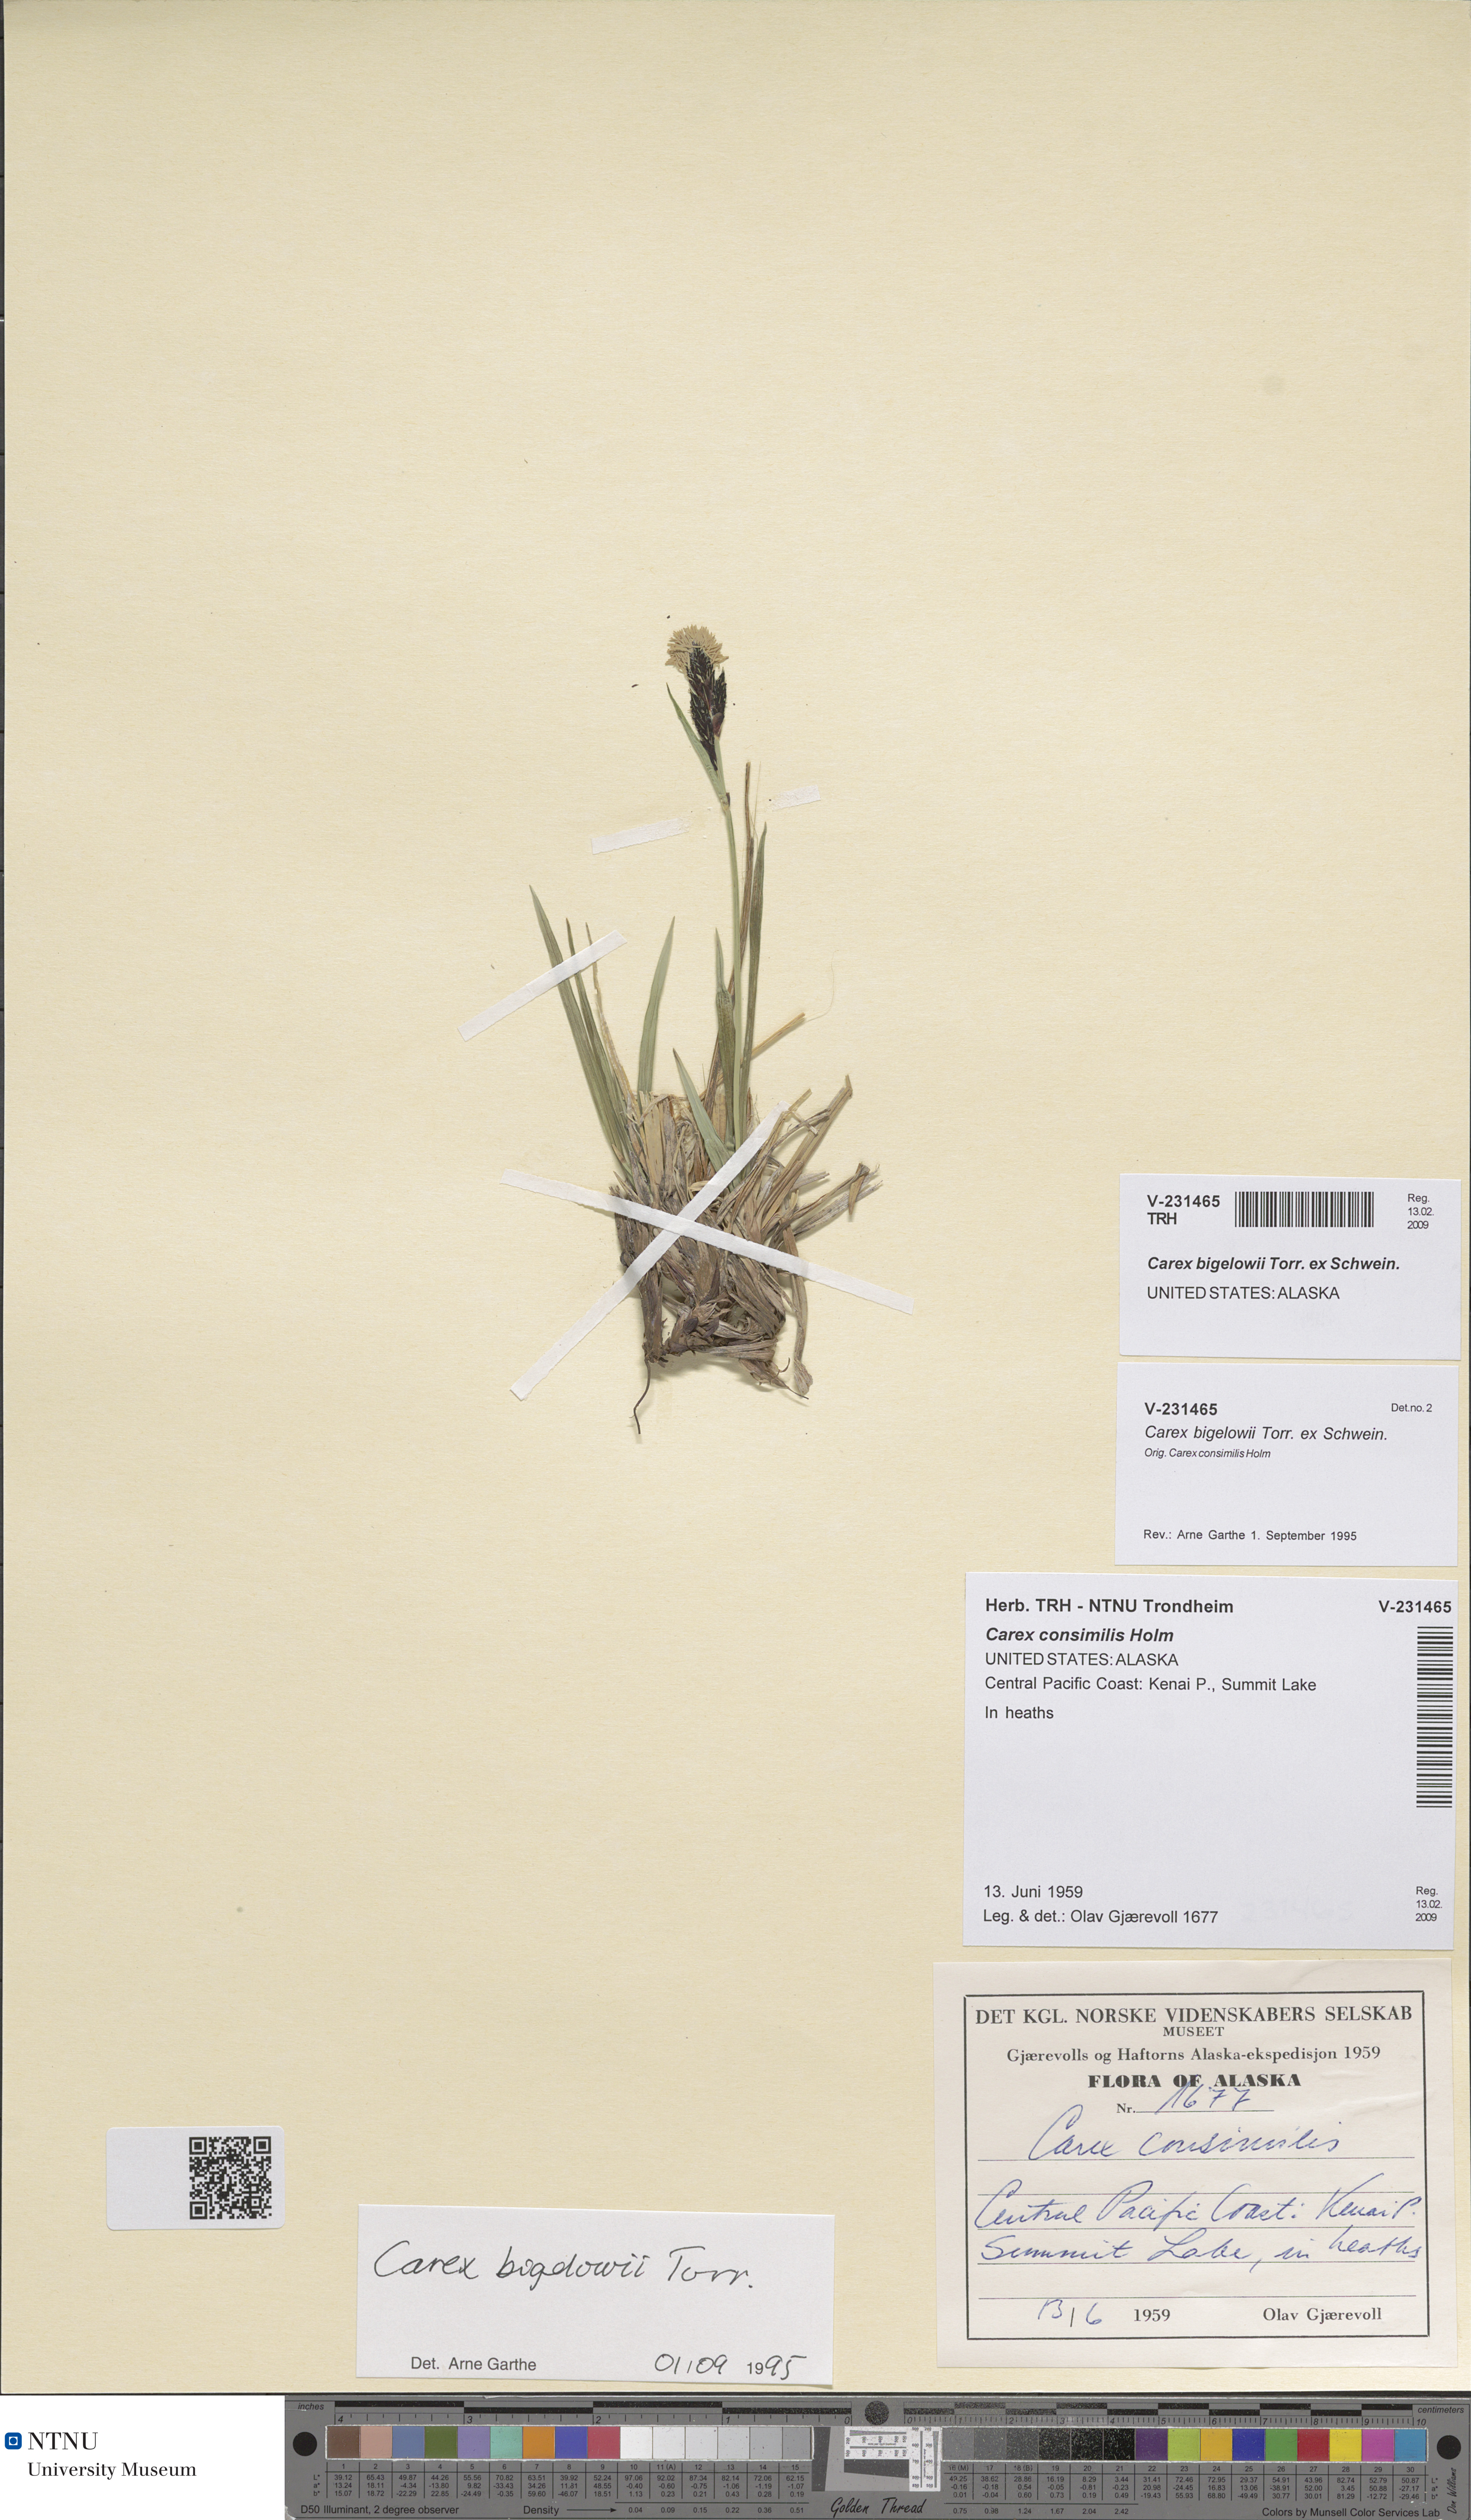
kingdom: Plantae
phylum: Tracheophyta
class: Liliopsida
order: Poales
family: Cyperaceae
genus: Carex
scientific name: Carex bigelowii
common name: Stiff sedge
